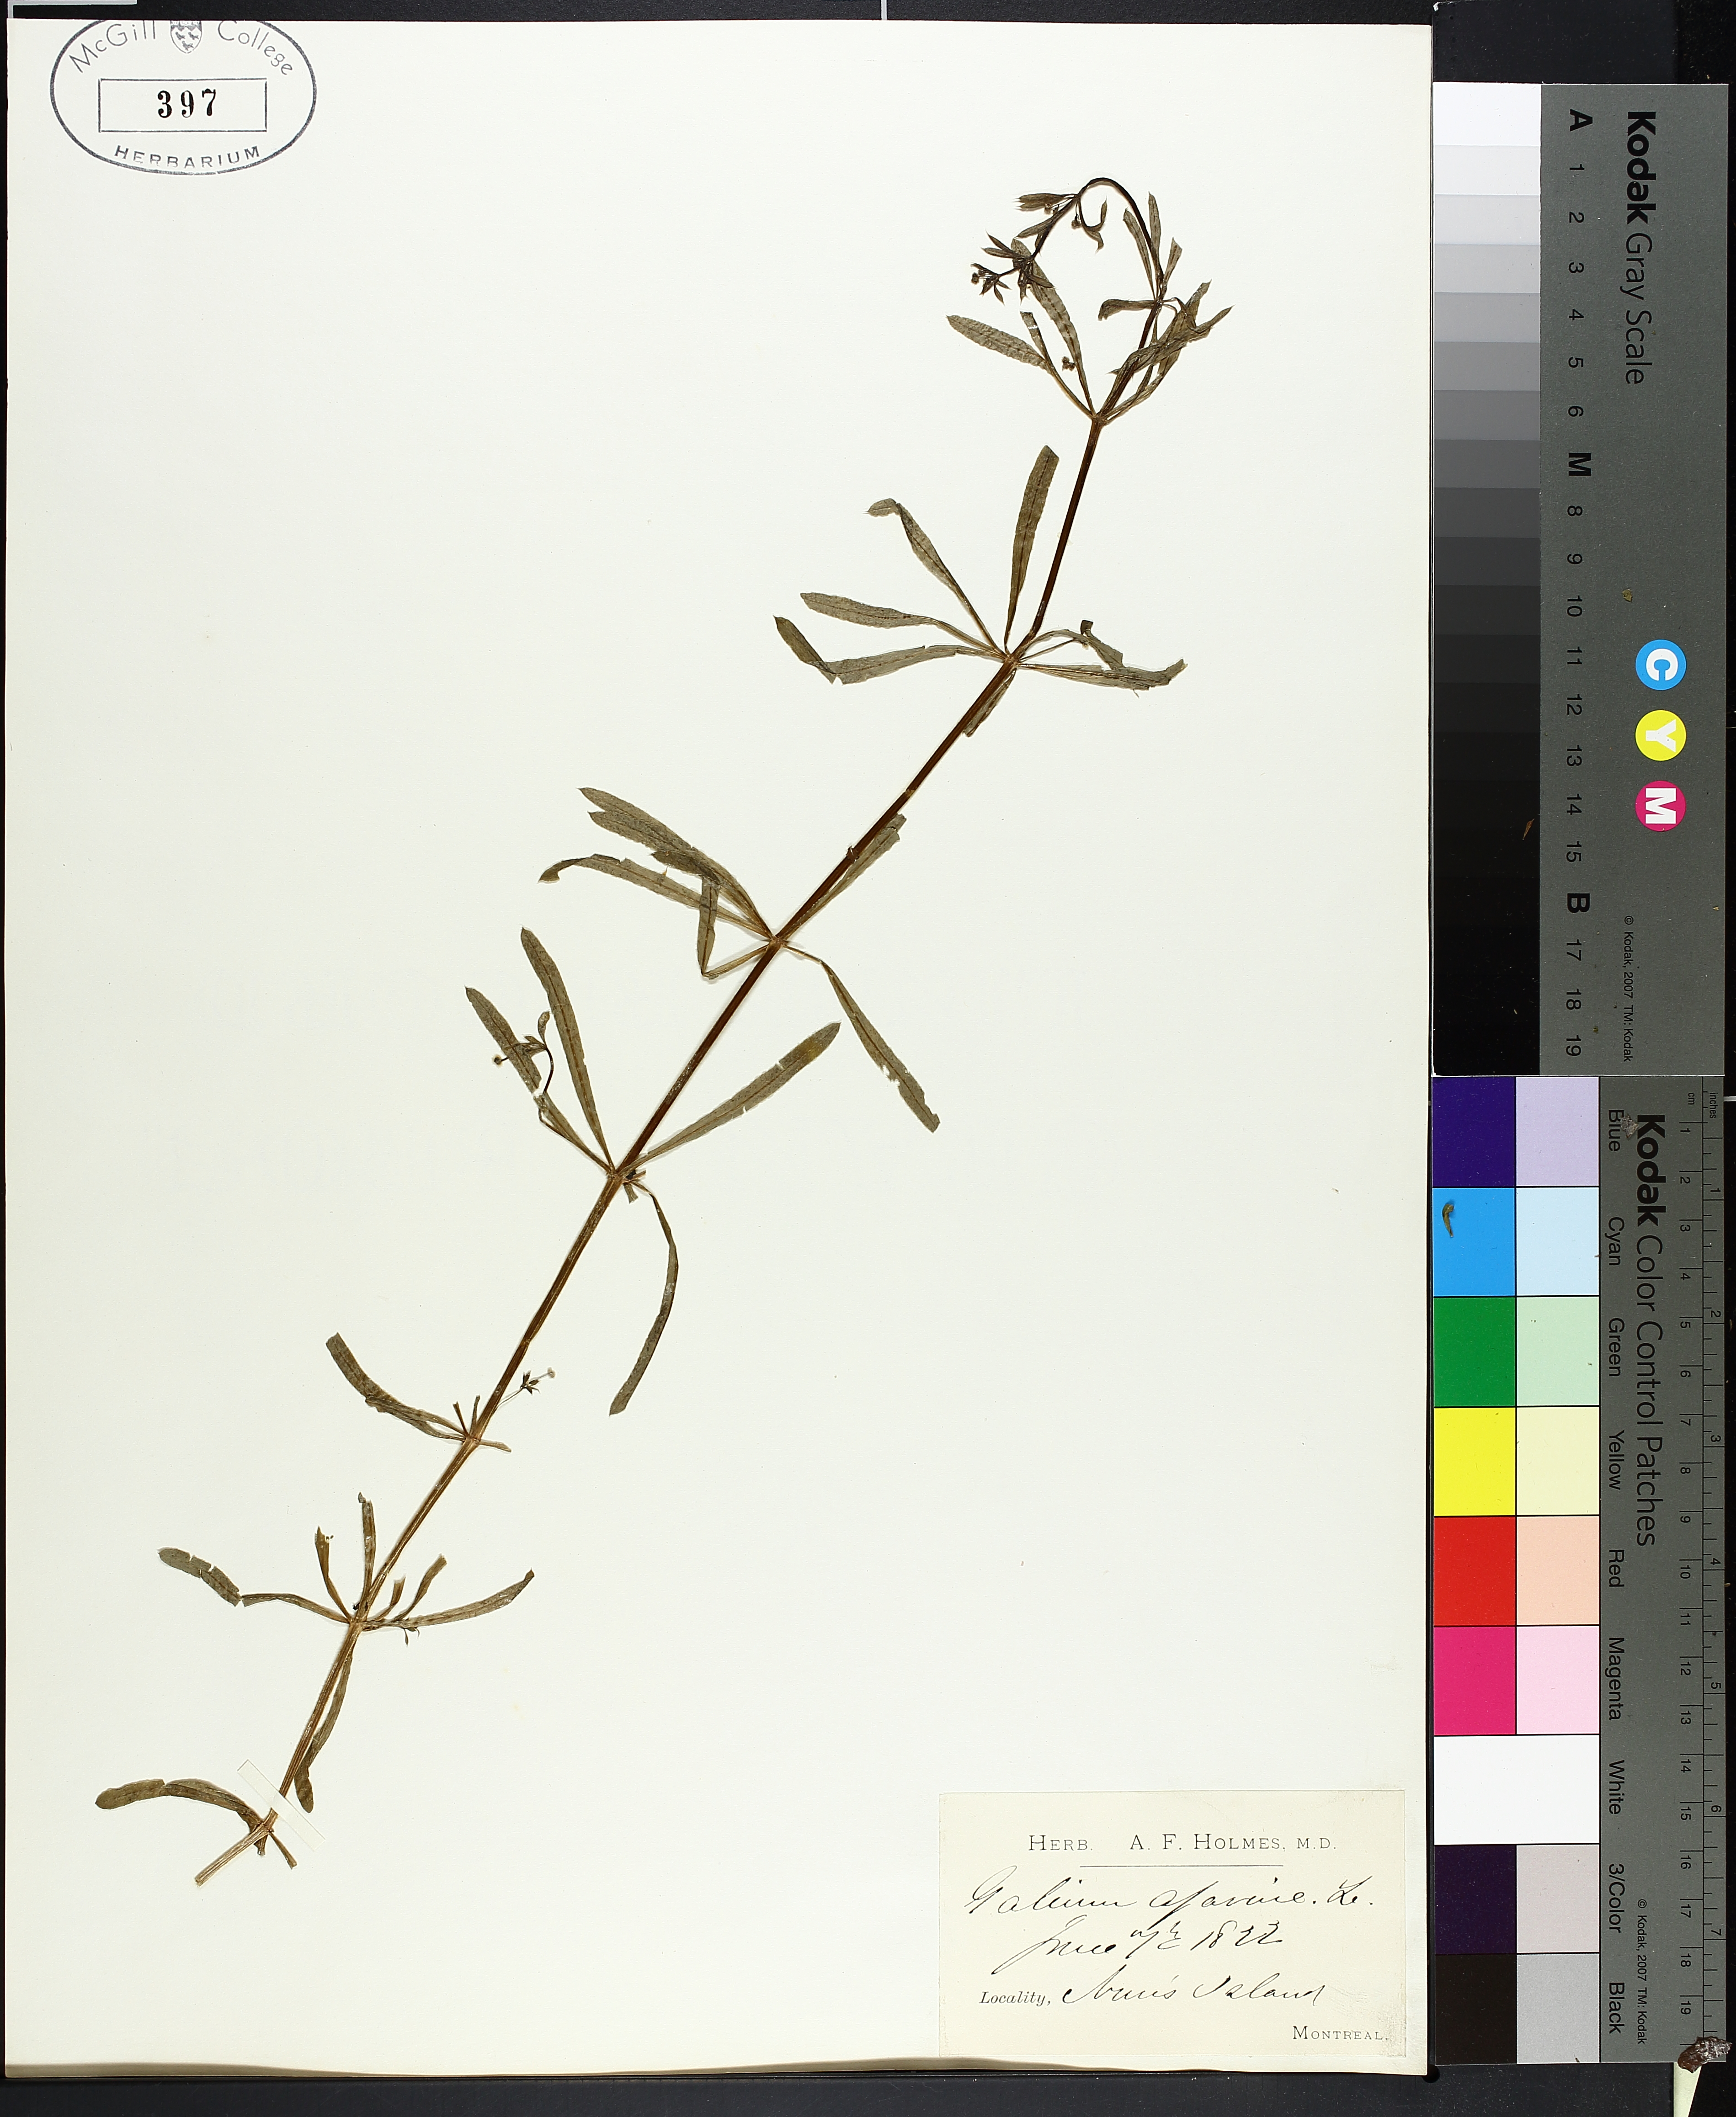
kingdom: Plantae
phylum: Tracheophyta
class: Magnoliopsida
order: Gentianales
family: Rubiaceae
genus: Galium
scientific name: Galium aparine
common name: Cleavers
